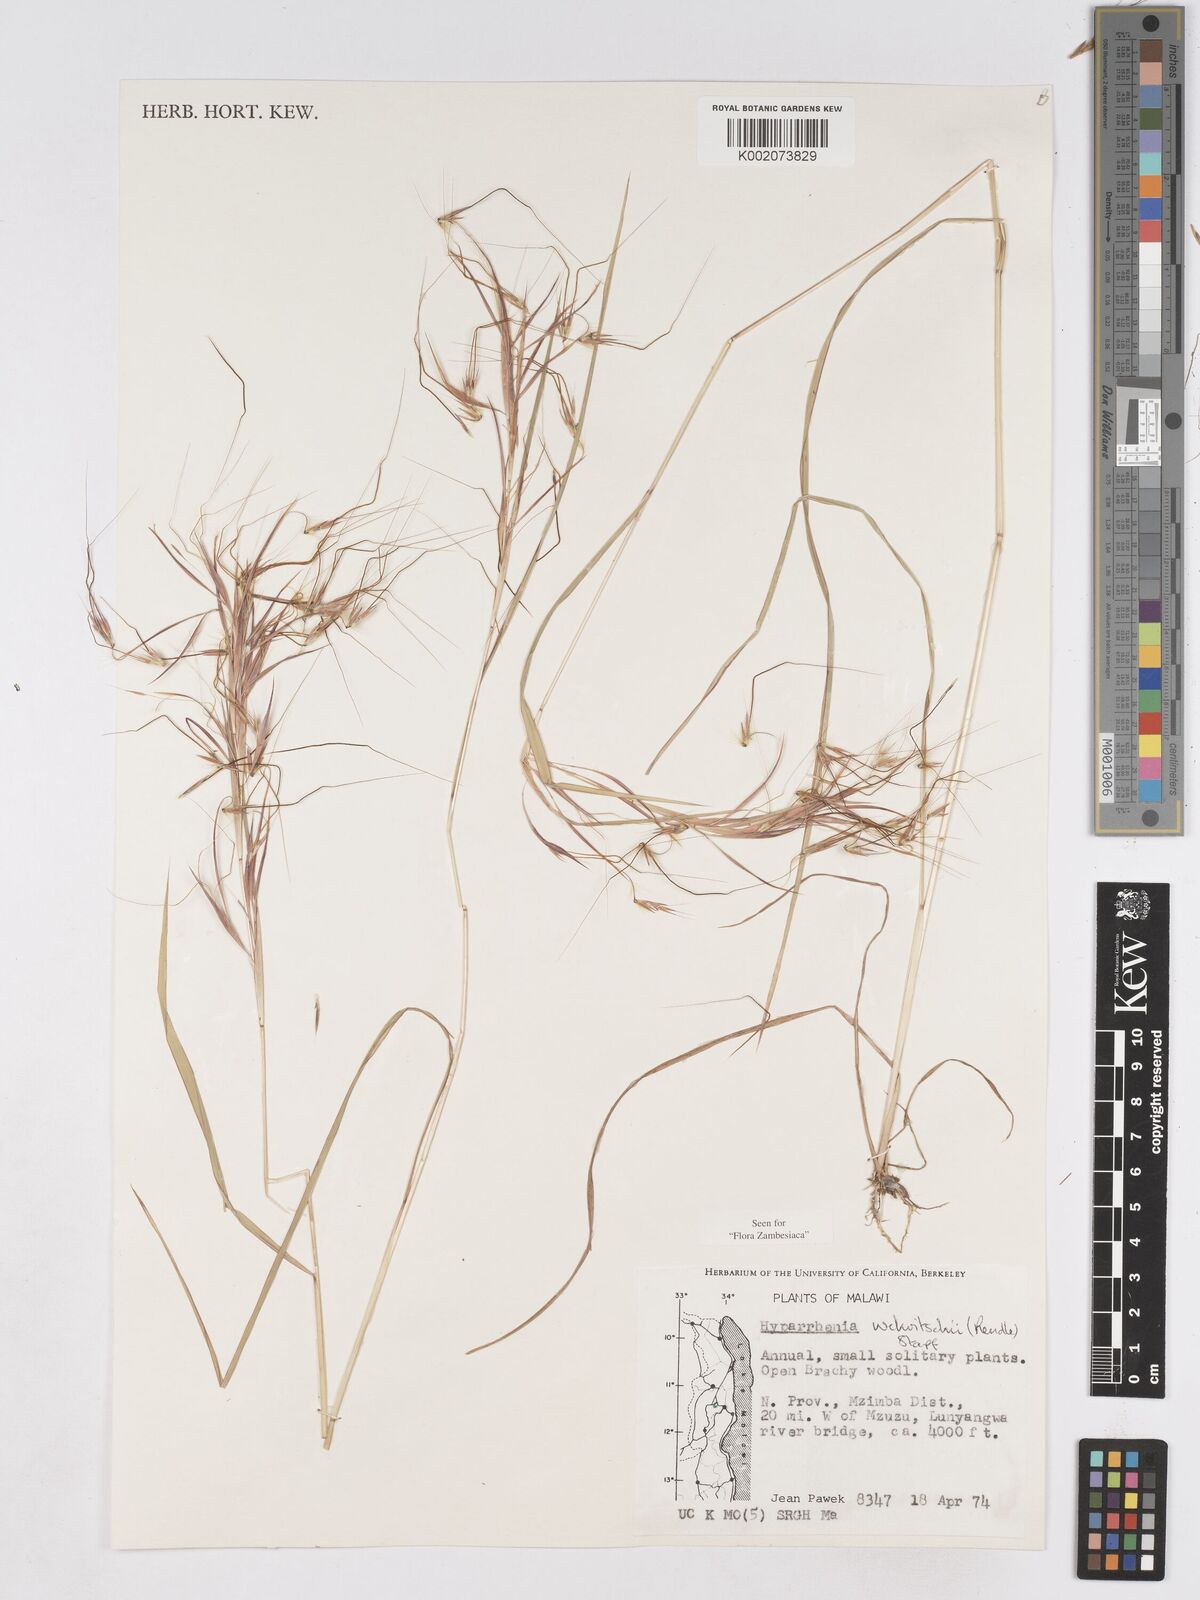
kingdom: Plantae
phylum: Tracheophyta
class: Liliopsida
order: Poales
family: Poaceae
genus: Hyparrhenia
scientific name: Hyparrhenia welwitschii
